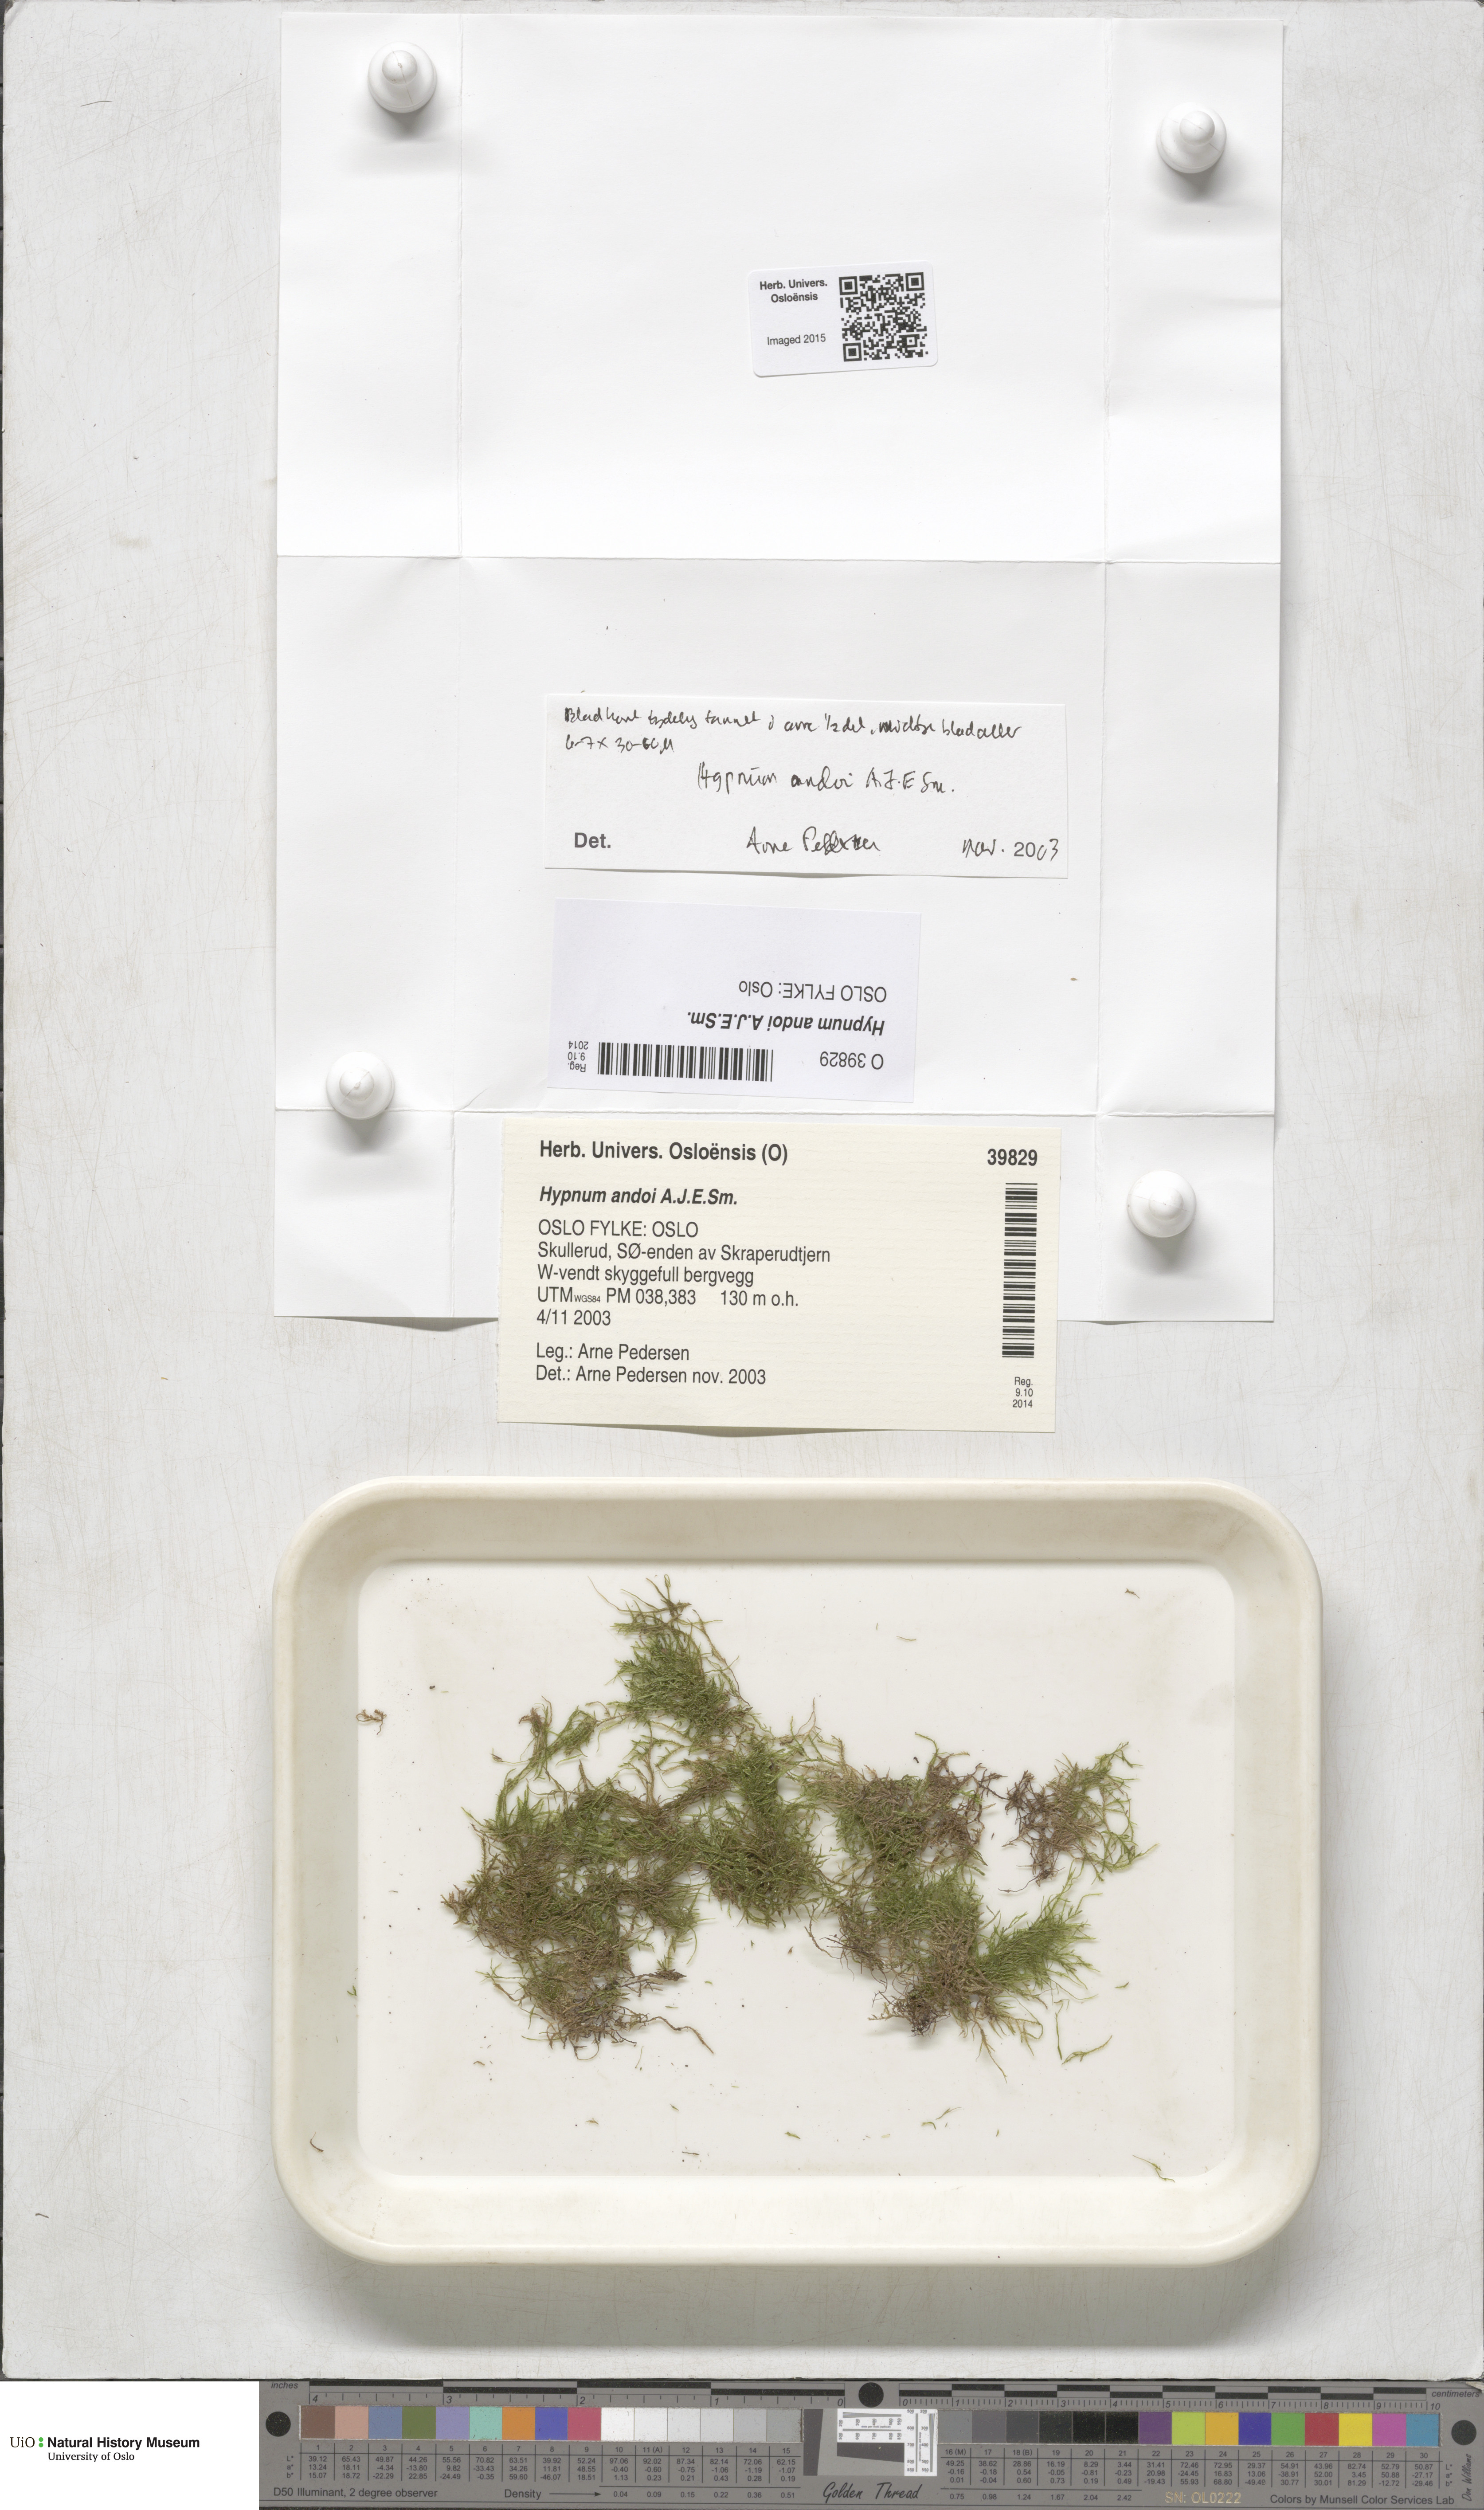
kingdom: Plantae
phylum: Bryophyta
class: Bryopsida
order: Hypnales
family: Hypnaceae
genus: Hypnum
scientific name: Hypnum andoi
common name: Ando's plait moss
